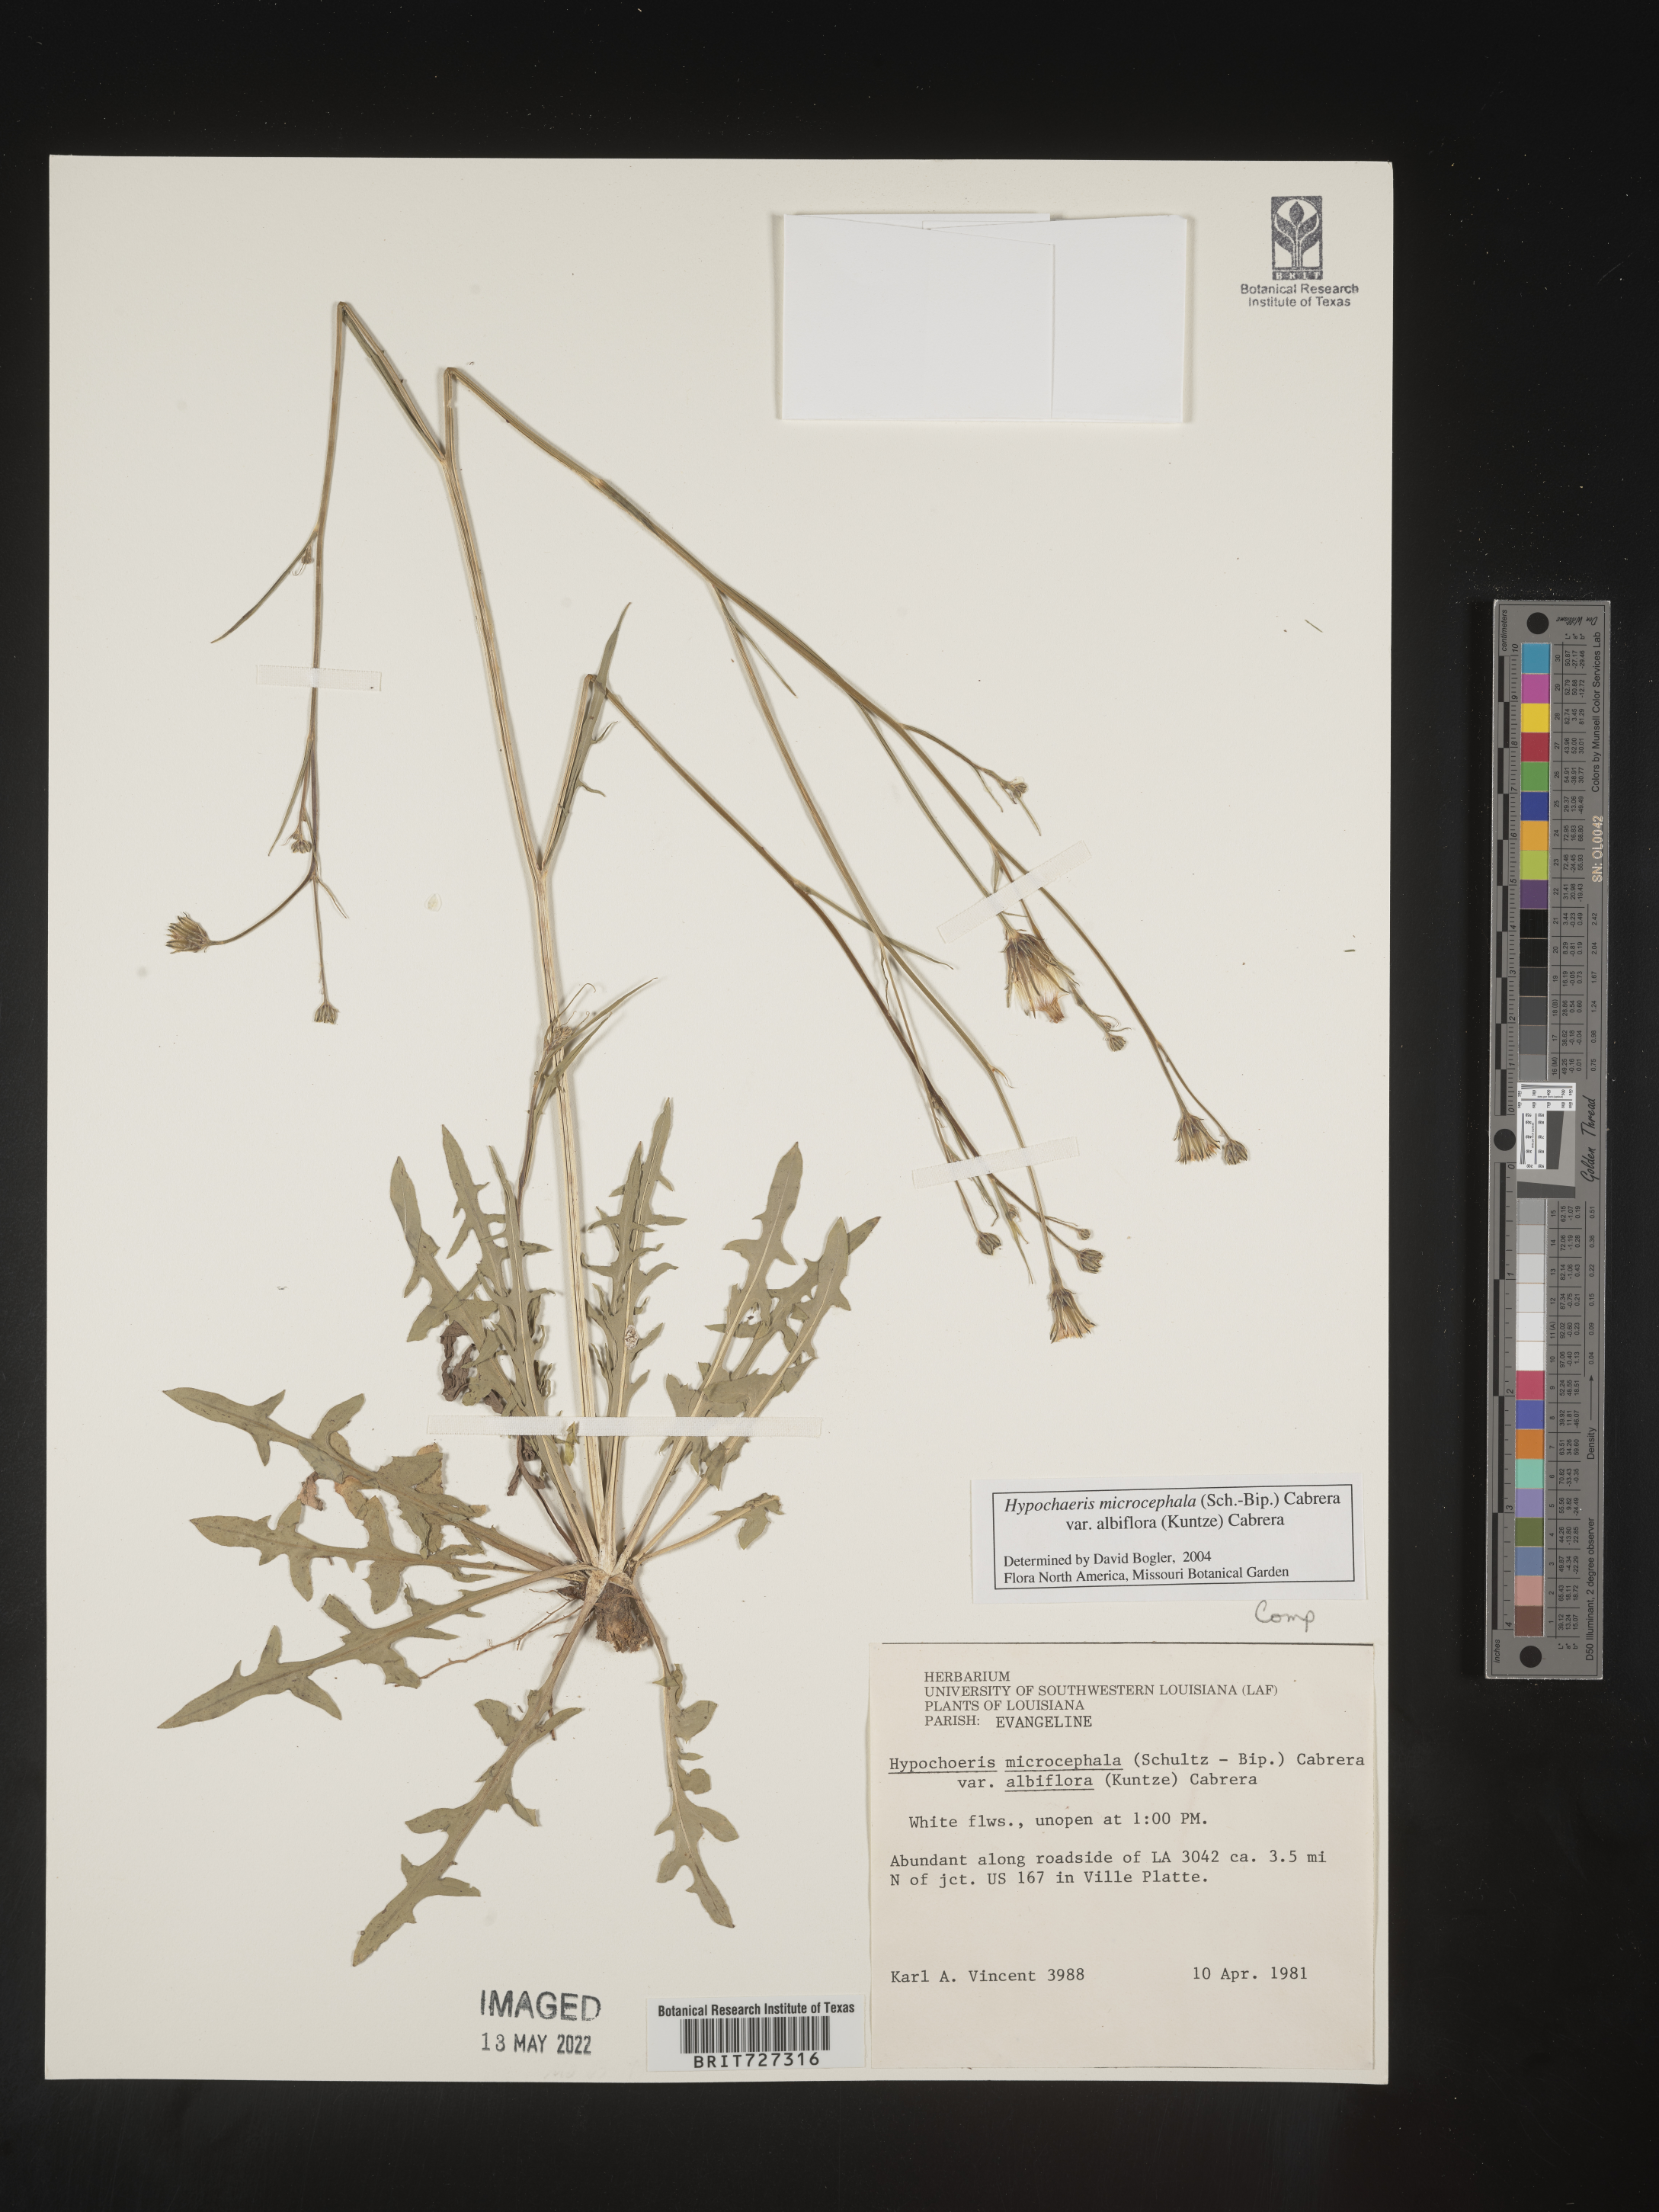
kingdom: Plantae
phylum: Tracheophyta
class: Magnoliopsida
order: Asterales
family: Asteraceae
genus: Hypochaeris
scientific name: Hypochaeris microcephala
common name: White flatweed
